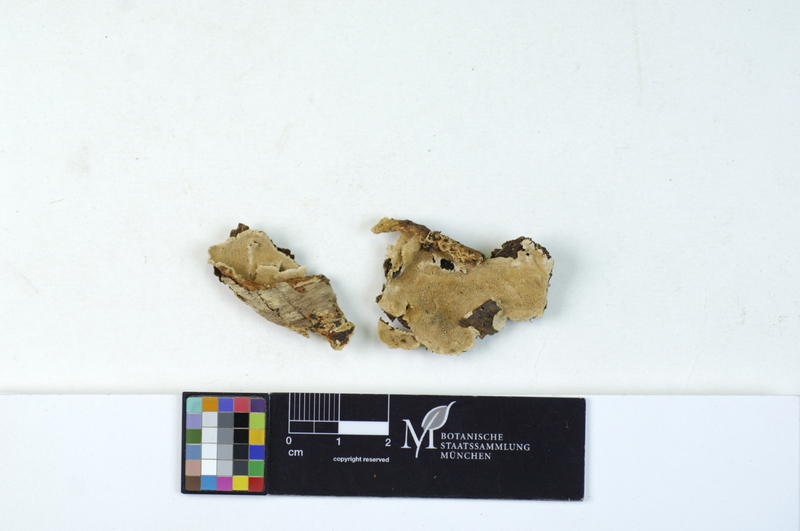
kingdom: Fungi
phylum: Basidiomycota
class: Agaricomycetes
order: Polyporales
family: Steccherinaceae
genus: Junghuhnia
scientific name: Junghuhnia nitida
